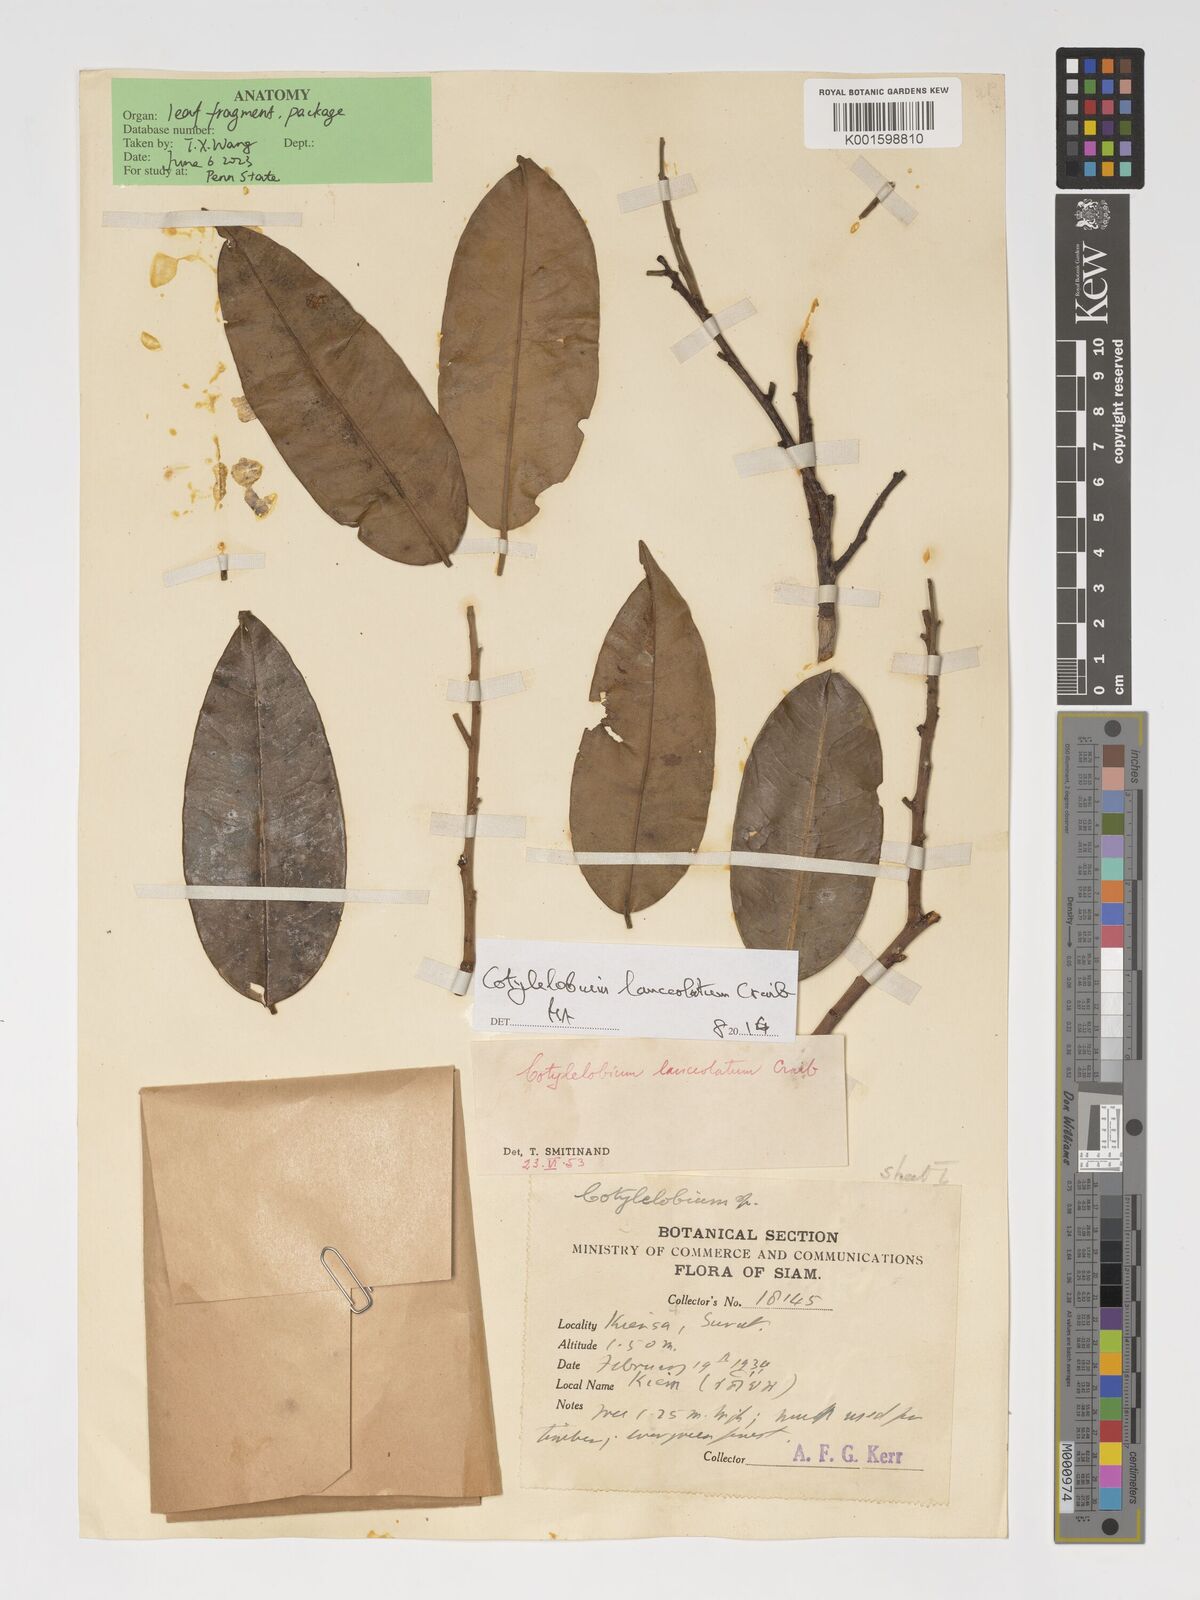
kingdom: Plantae
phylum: Tracheophyta
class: Magnoliopsida
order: Malvales
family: Dipterocarpaceae
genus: Cotylelobium
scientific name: Cotylelobium lanceolatum
